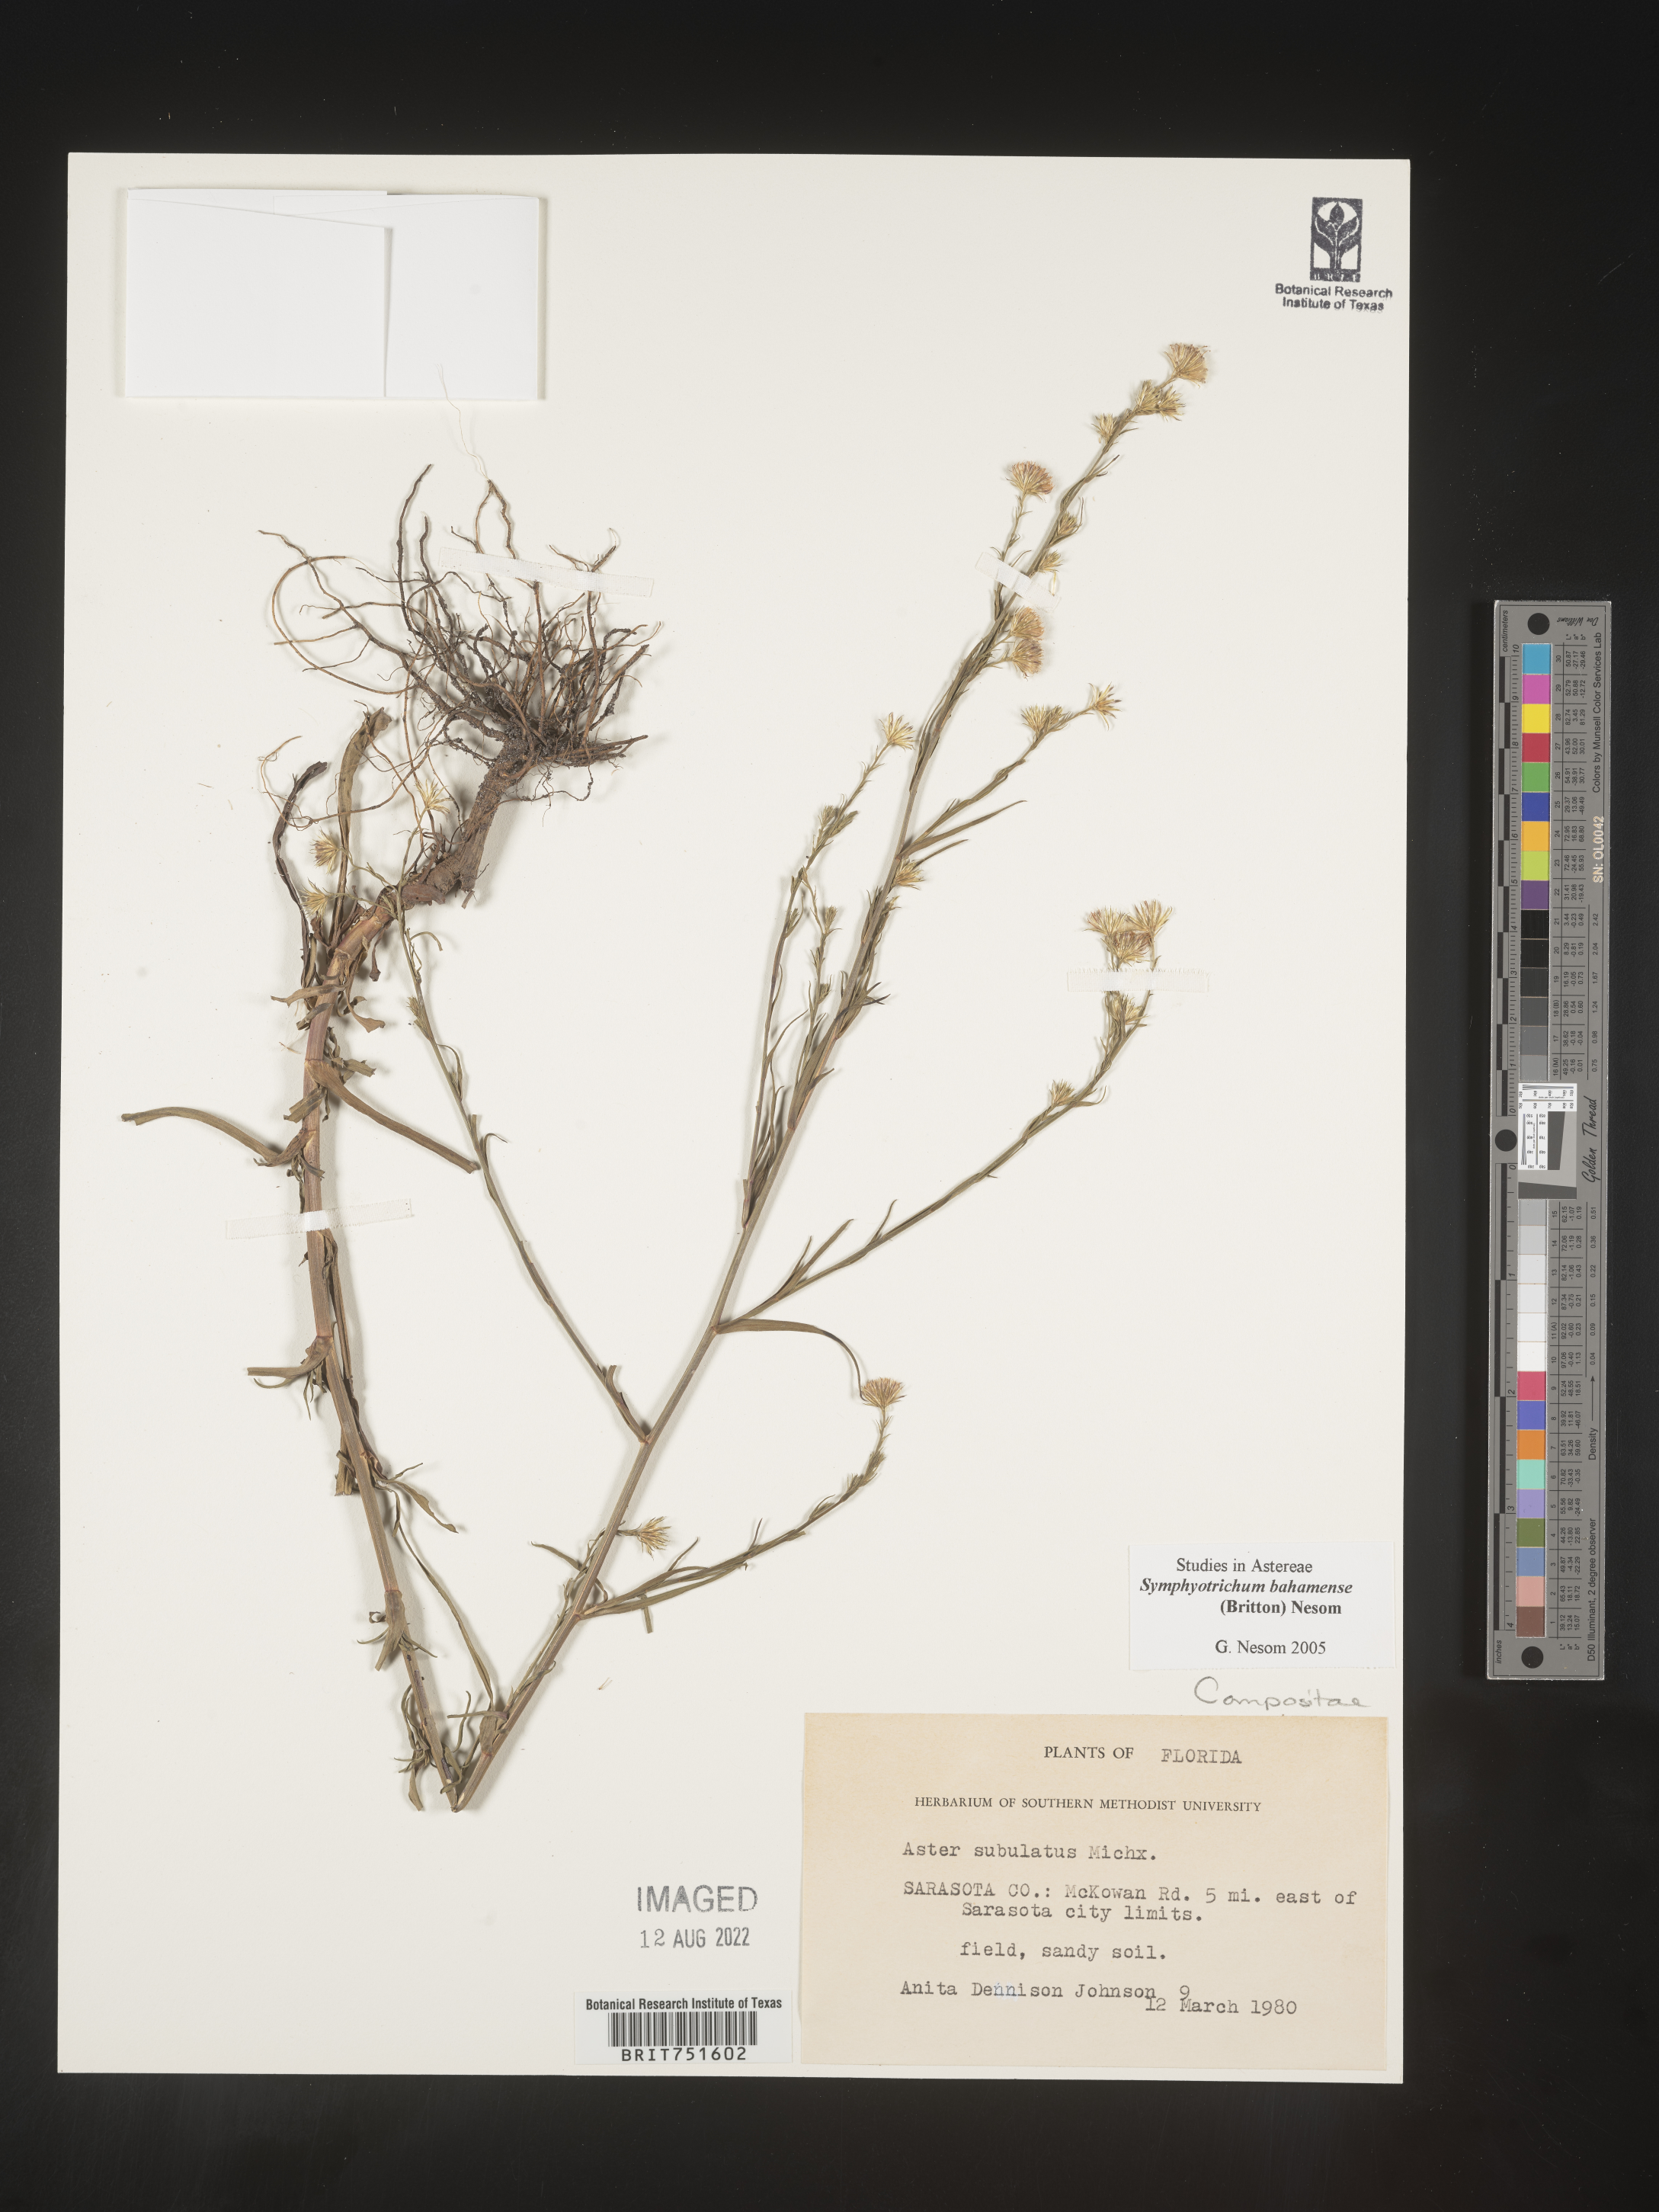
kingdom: Plantae
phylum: Tracheophyta
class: Magnoliopsida
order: Asterales
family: Asteraceae
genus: Symphyotrichum
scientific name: Symphyotrichum subulatum
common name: Annual saltmarsh aster
